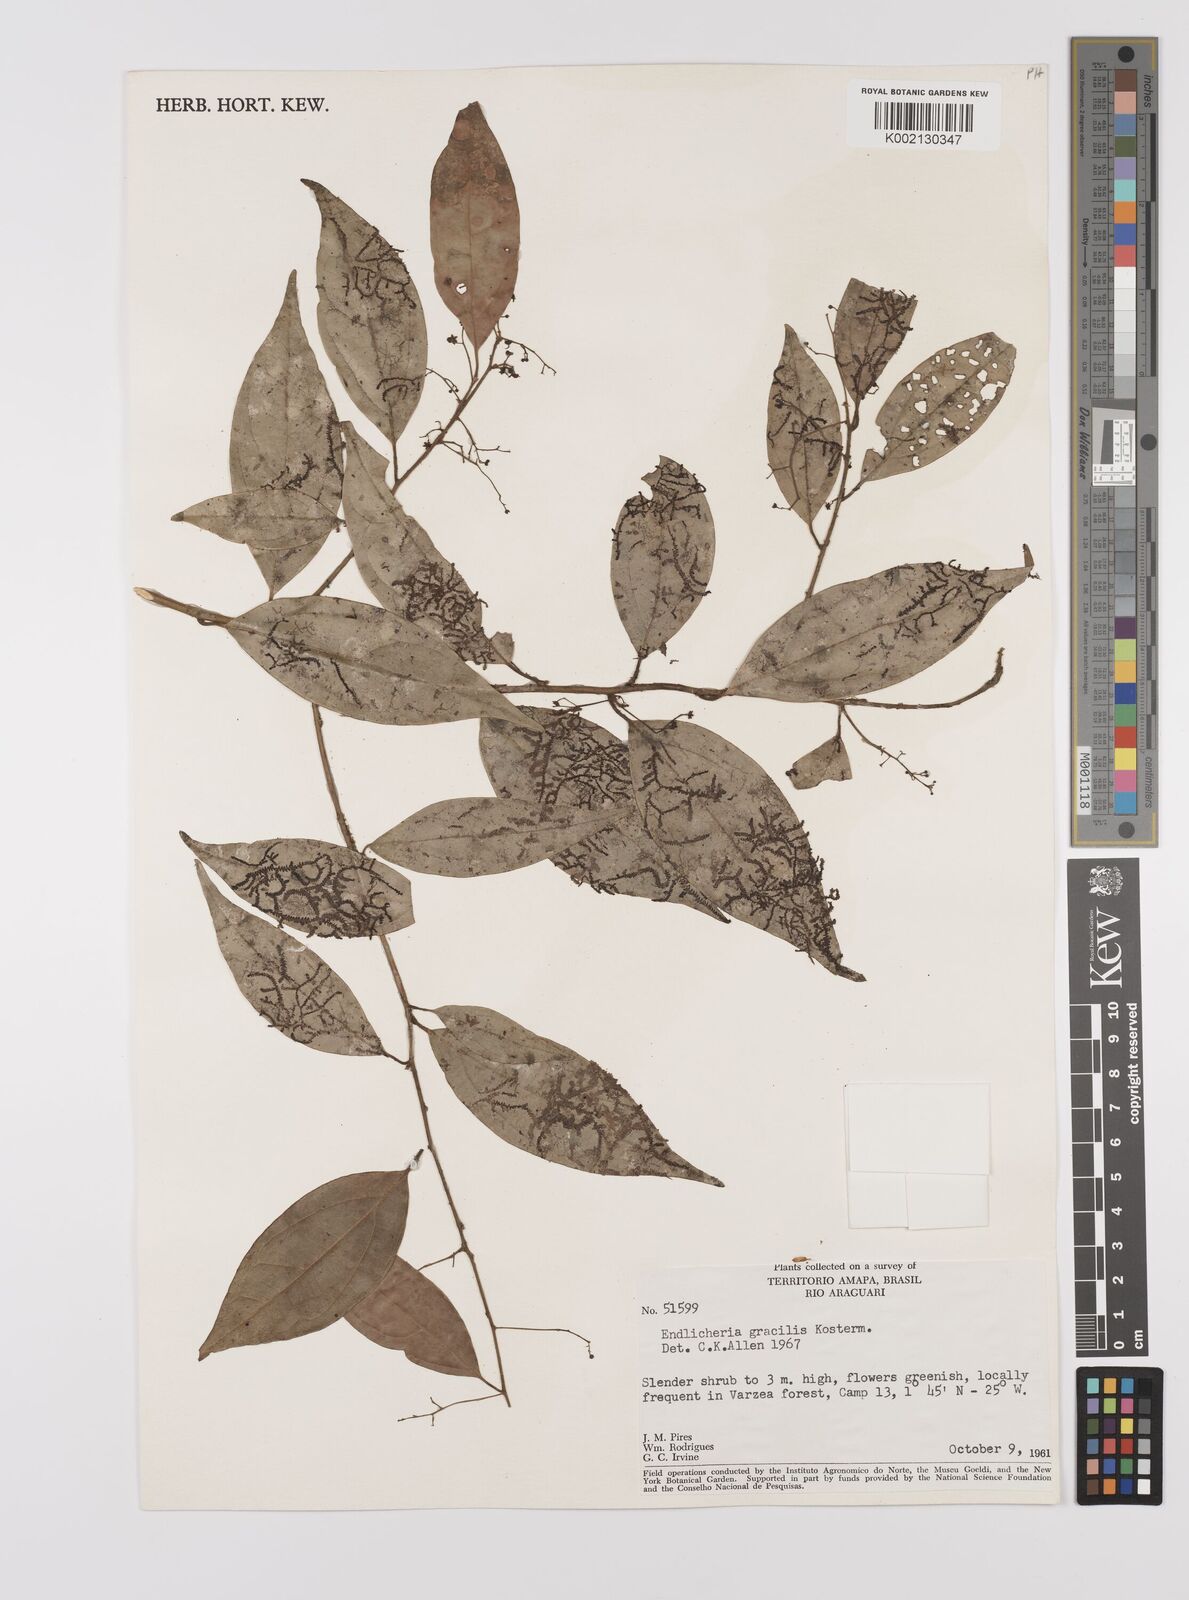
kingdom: Plantae
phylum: Tracheophyta
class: Magnoliopsida
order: Laurales
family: Lauraceae
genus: Endlicheria
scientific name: Endlicheria gracilis
